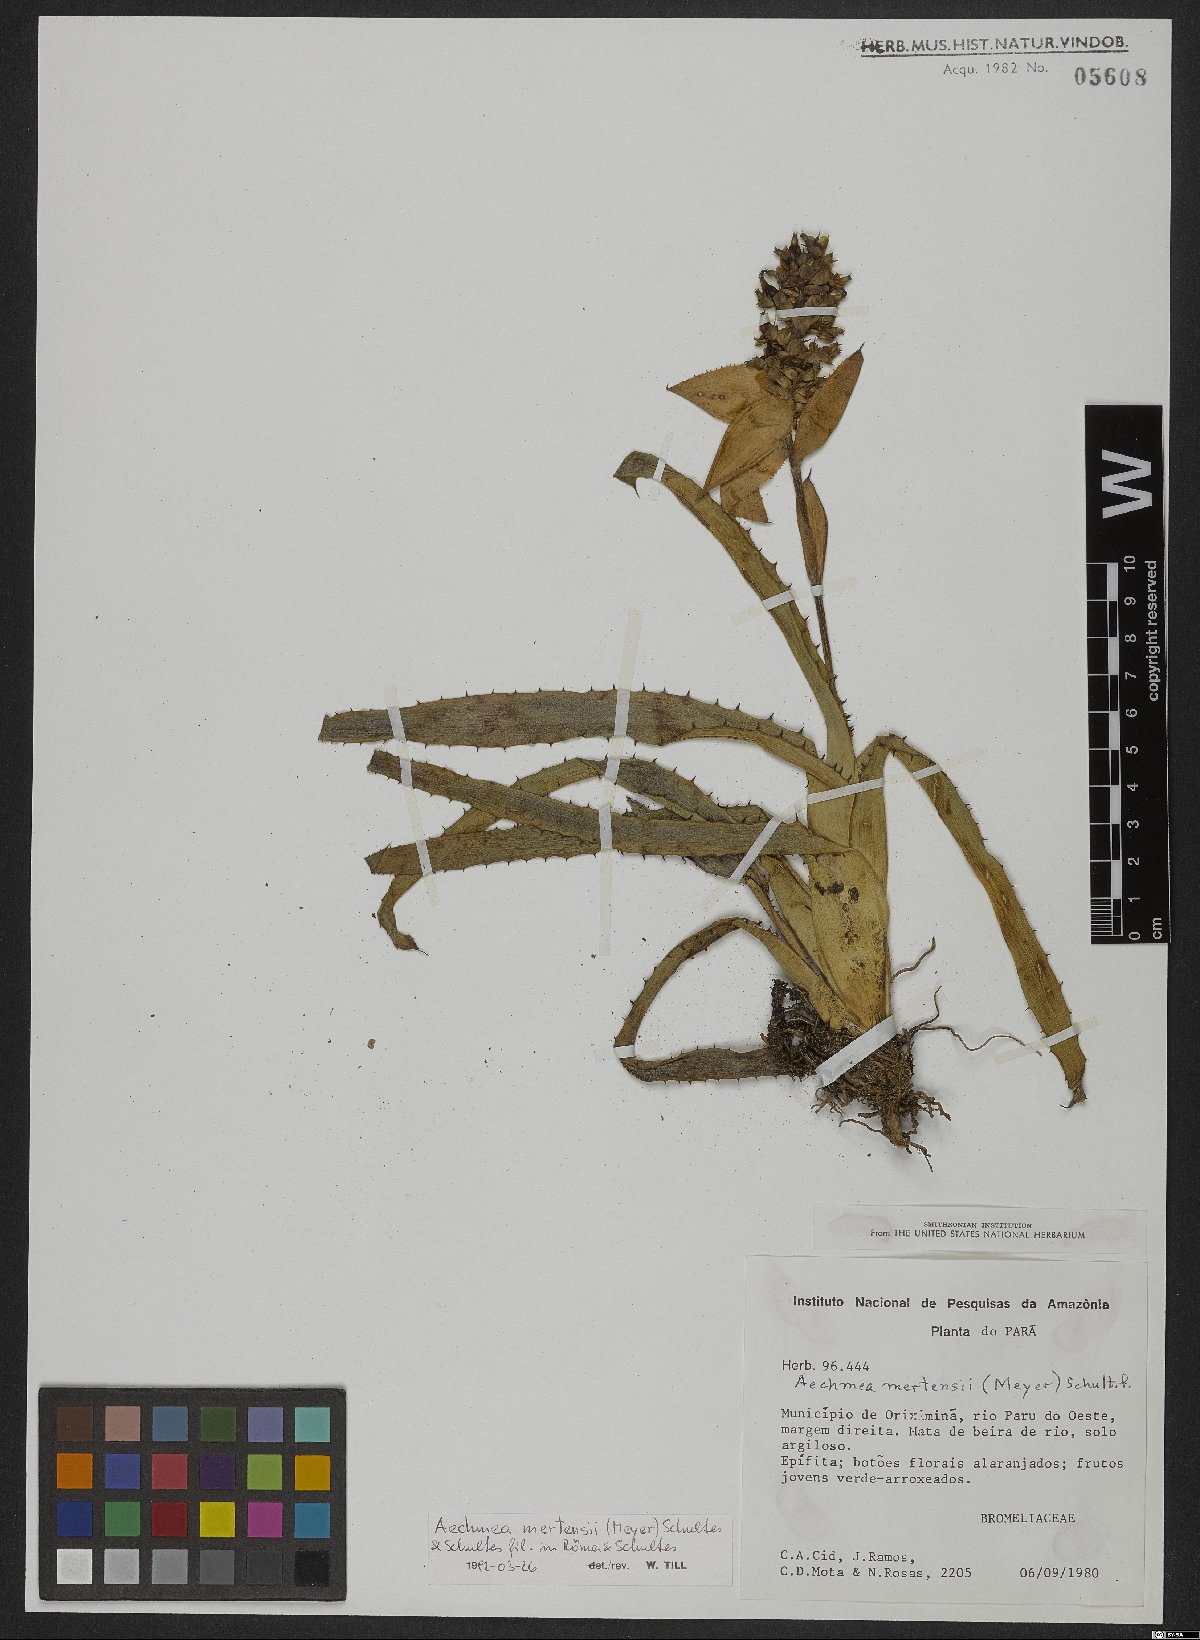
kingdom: Plantae
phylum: Tracheophyta
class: Liliopsida
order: Poales
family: Bromeliaceae
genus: Aechmea
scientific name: Aechmea mertensii
